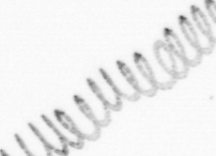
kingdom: Chromista
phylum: Ochrophyta
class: Bacillariophyceae
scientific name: Bacillariophyceae
